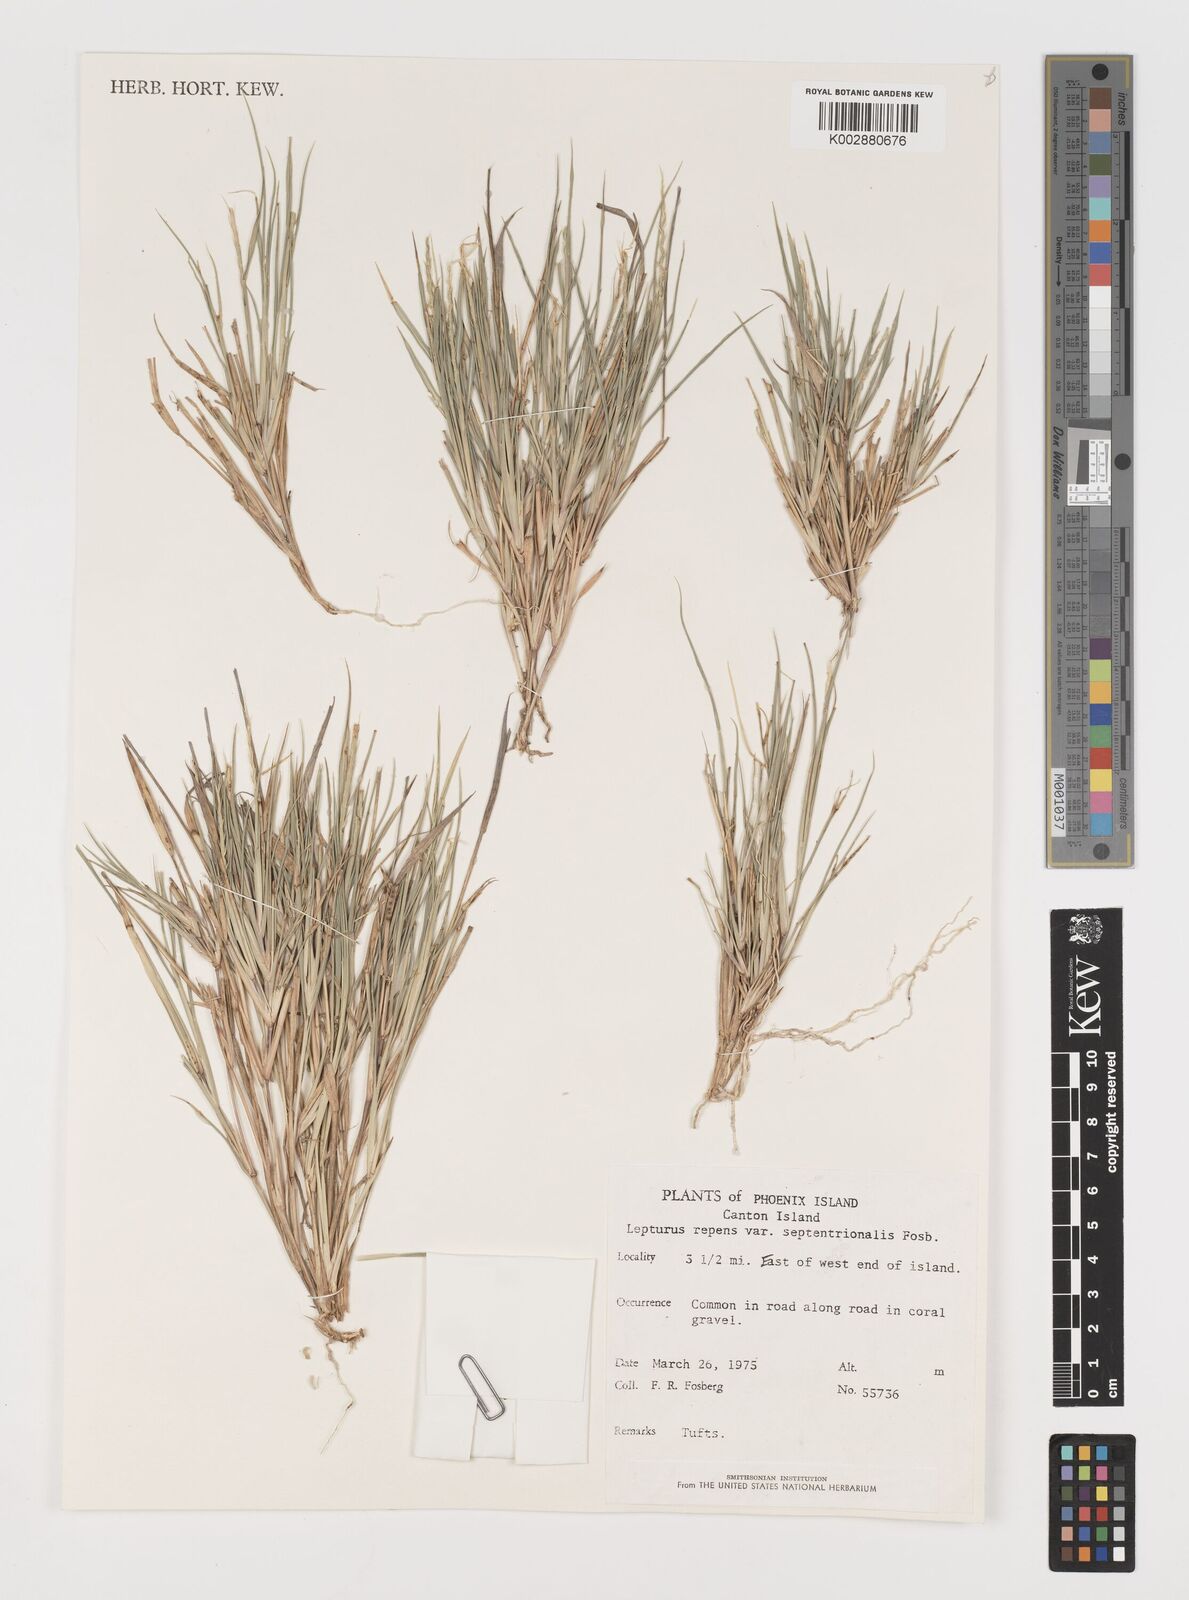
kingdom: Plantae
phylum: Tracheophyta
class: Liliopsida
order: Poales
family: Poaceae
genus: Lepturus
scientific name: Lepturus repens
